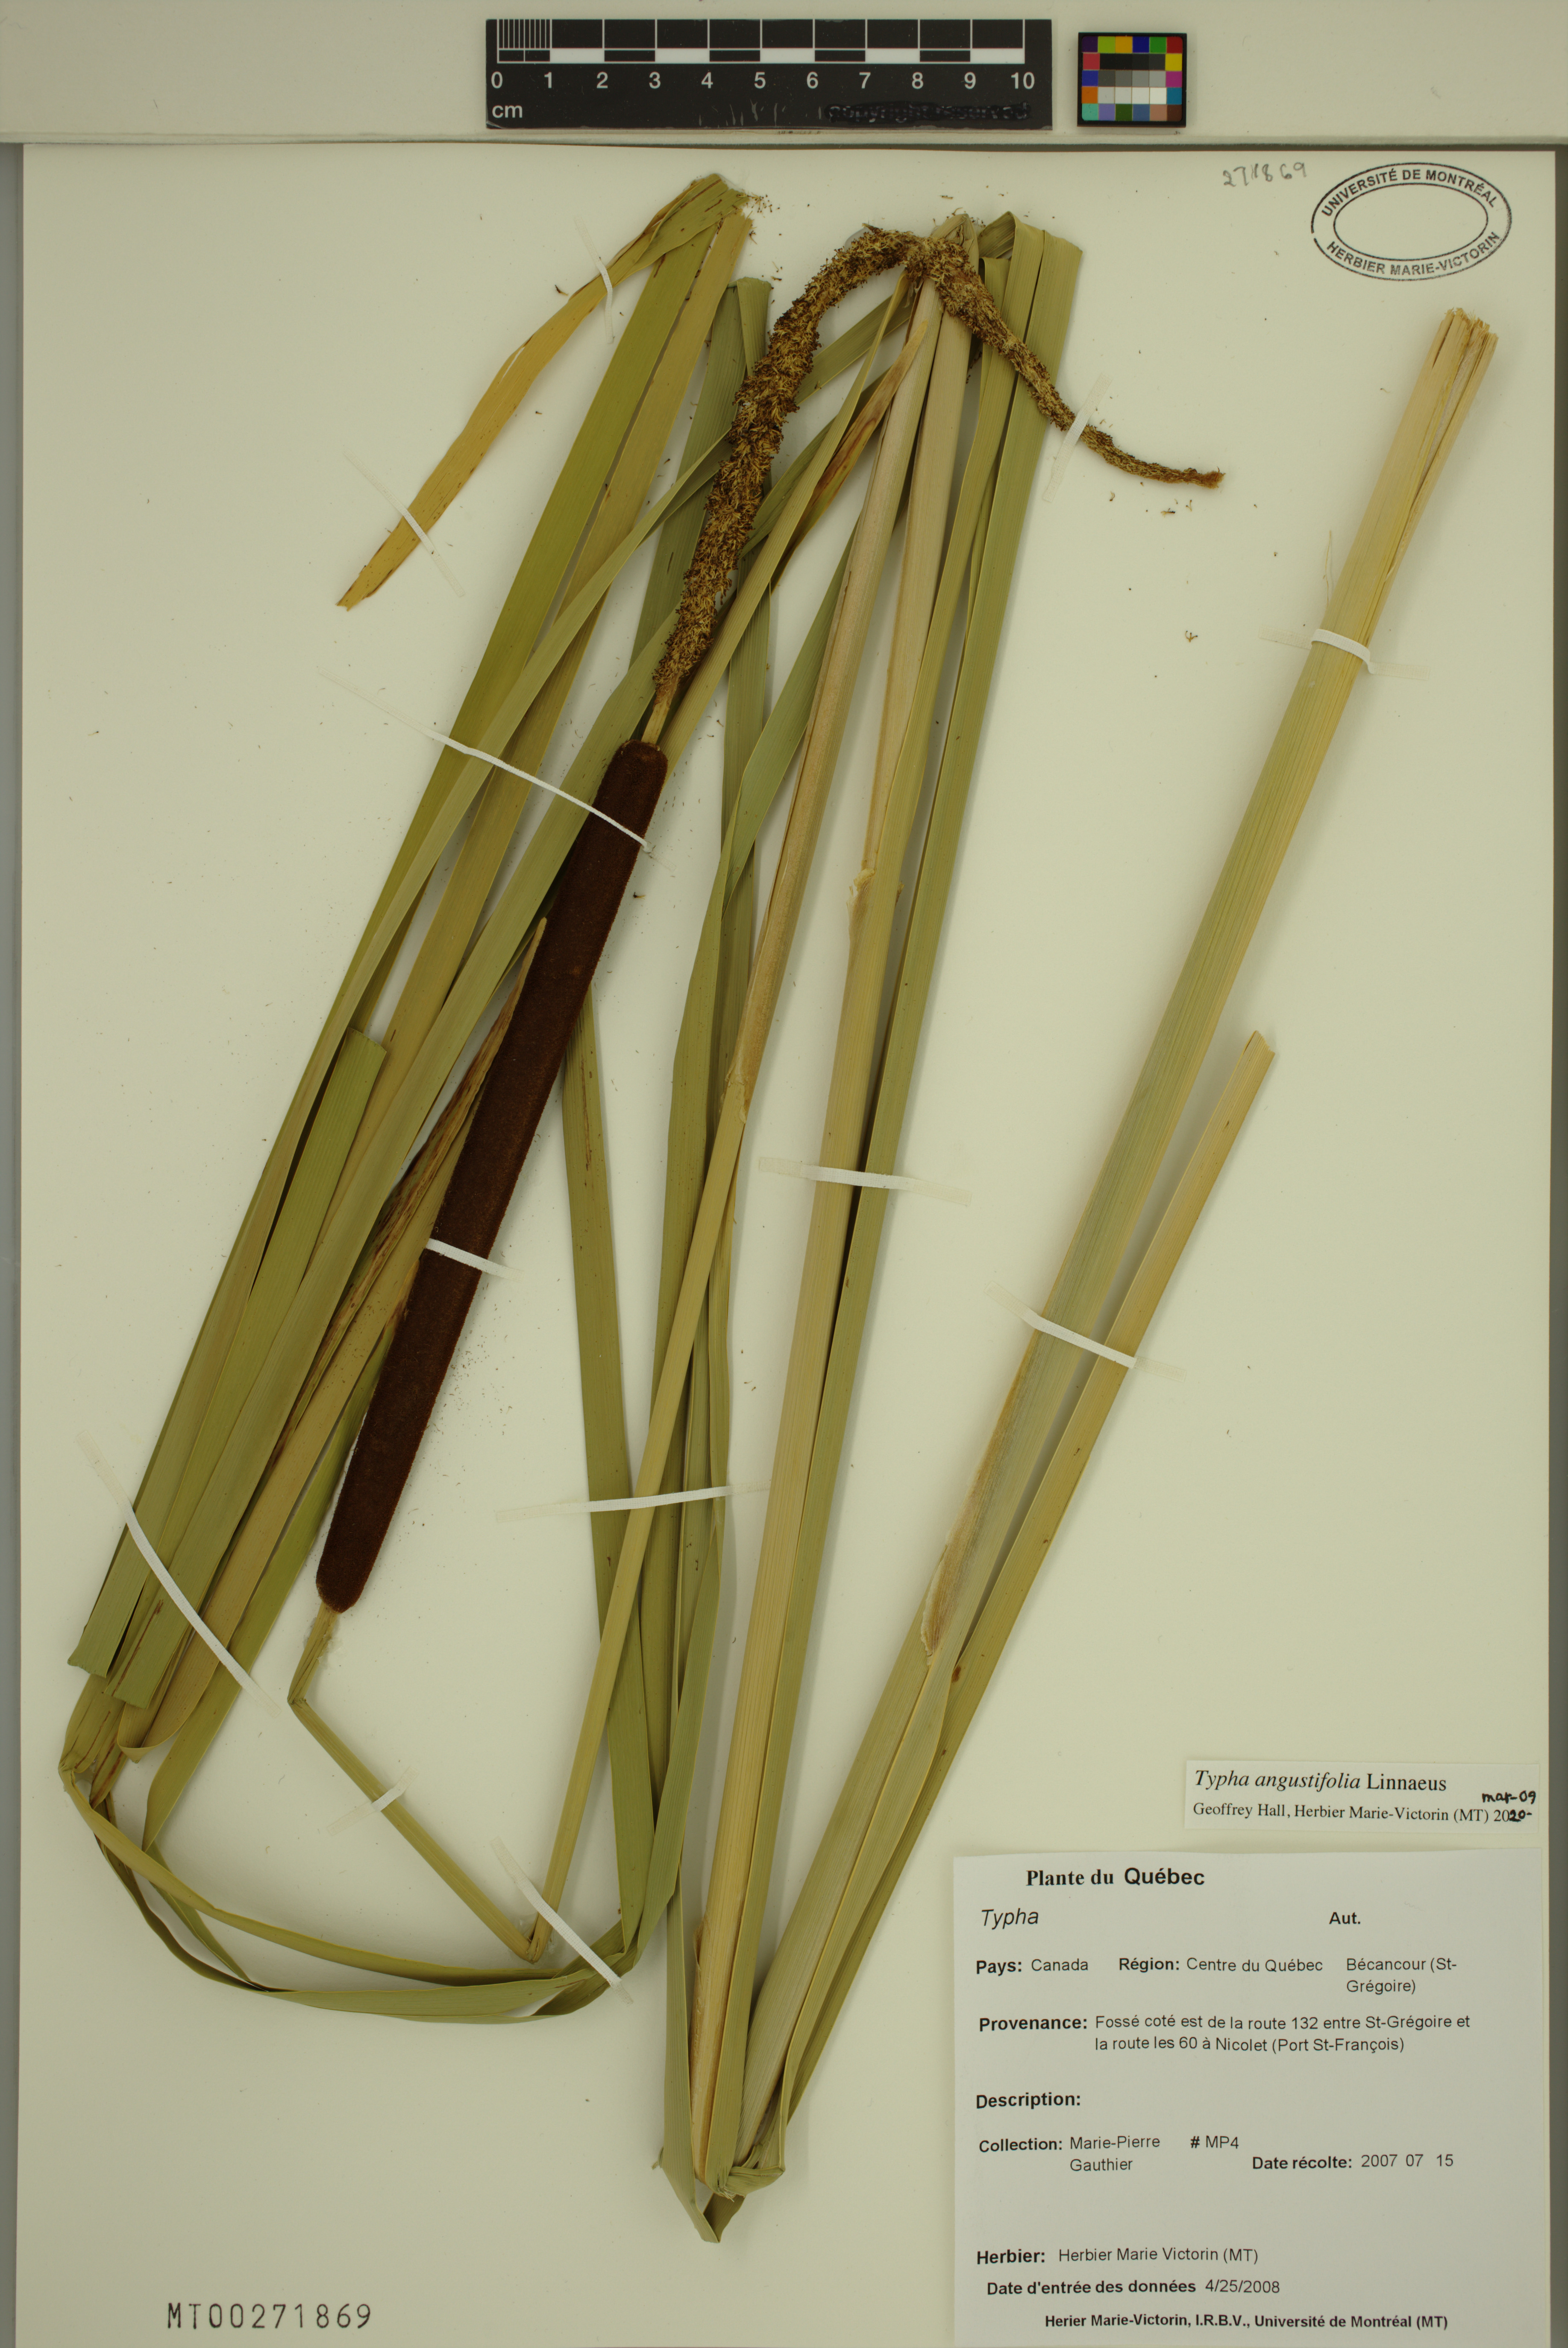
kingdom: Plantae
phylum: Tracheophyta
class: Liliopsida
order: Poales
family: Typhaceae
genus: Typha
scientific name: Typha angustifolia
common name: Lesser bulrush
